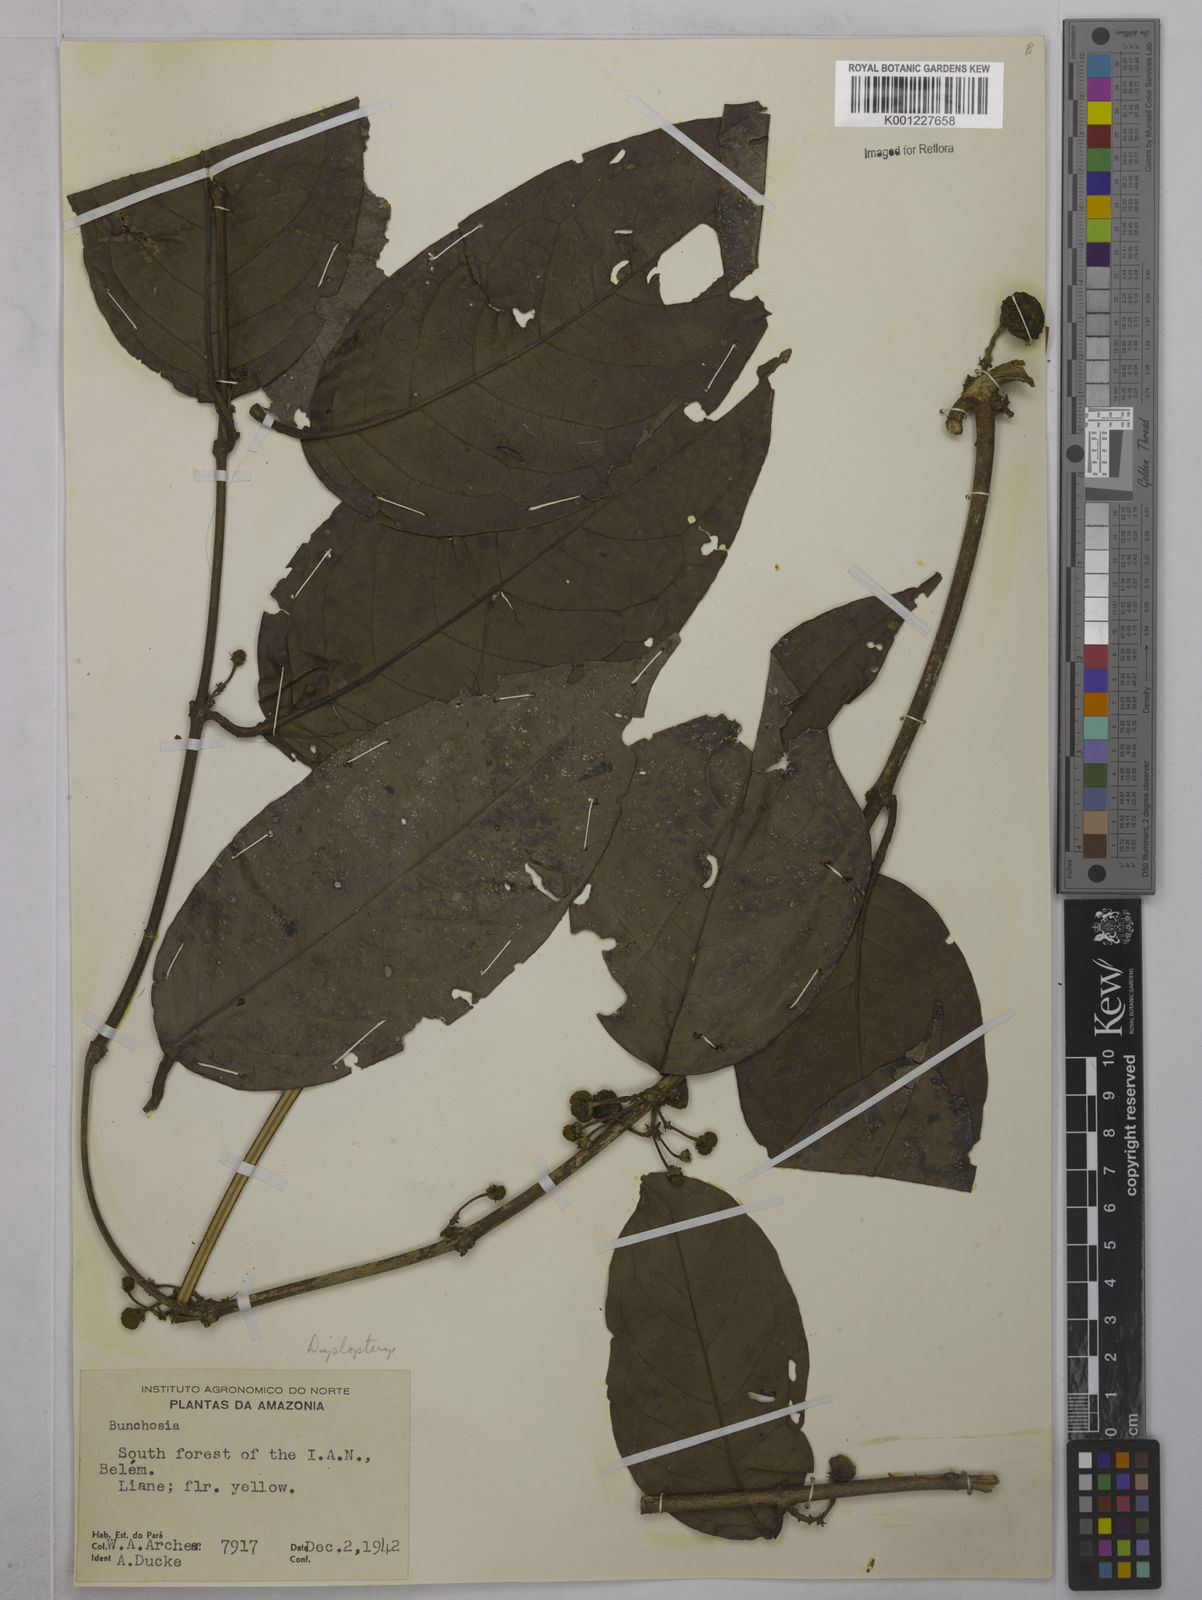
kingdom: Plantae
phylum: Tracheophyta
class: Magnoliopsida
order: Malpighiales
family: Malpighiaceae
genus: Diplopterys
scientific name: Diplopterys cabrerana
